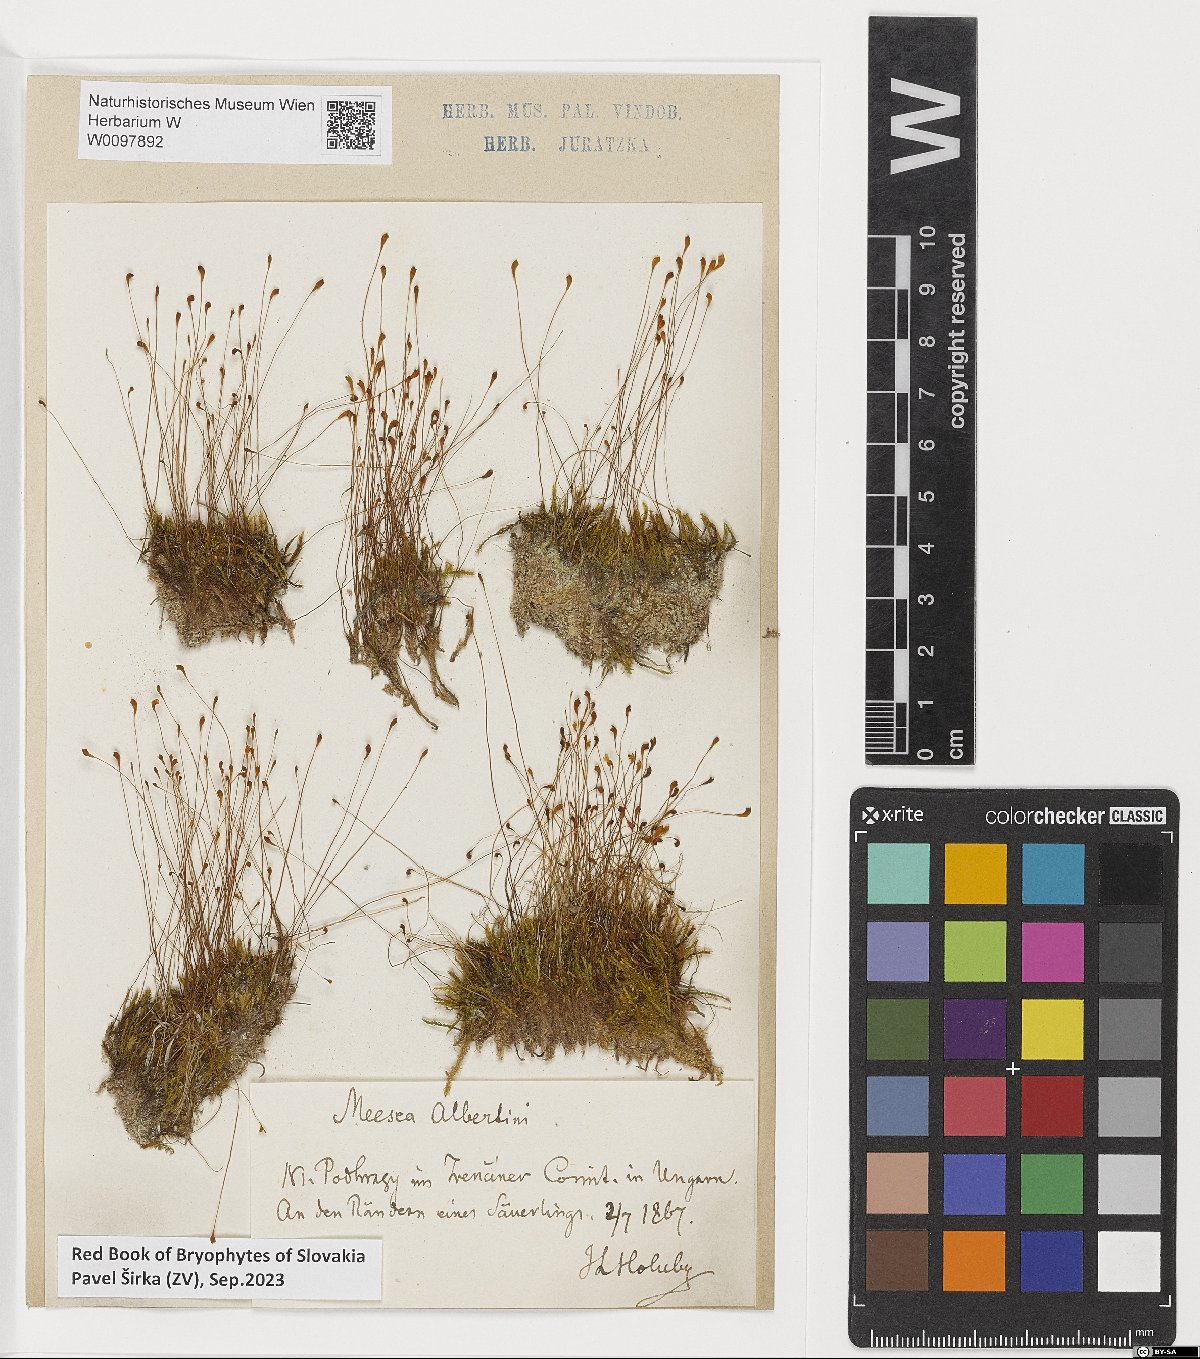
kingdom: Plantae
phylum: Bryophyta
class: Bryopsida
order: Splachnales
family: Meesiaceae
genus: Meesia
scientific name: Meesia hexasticha
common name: Triangular-leaved thread moss
